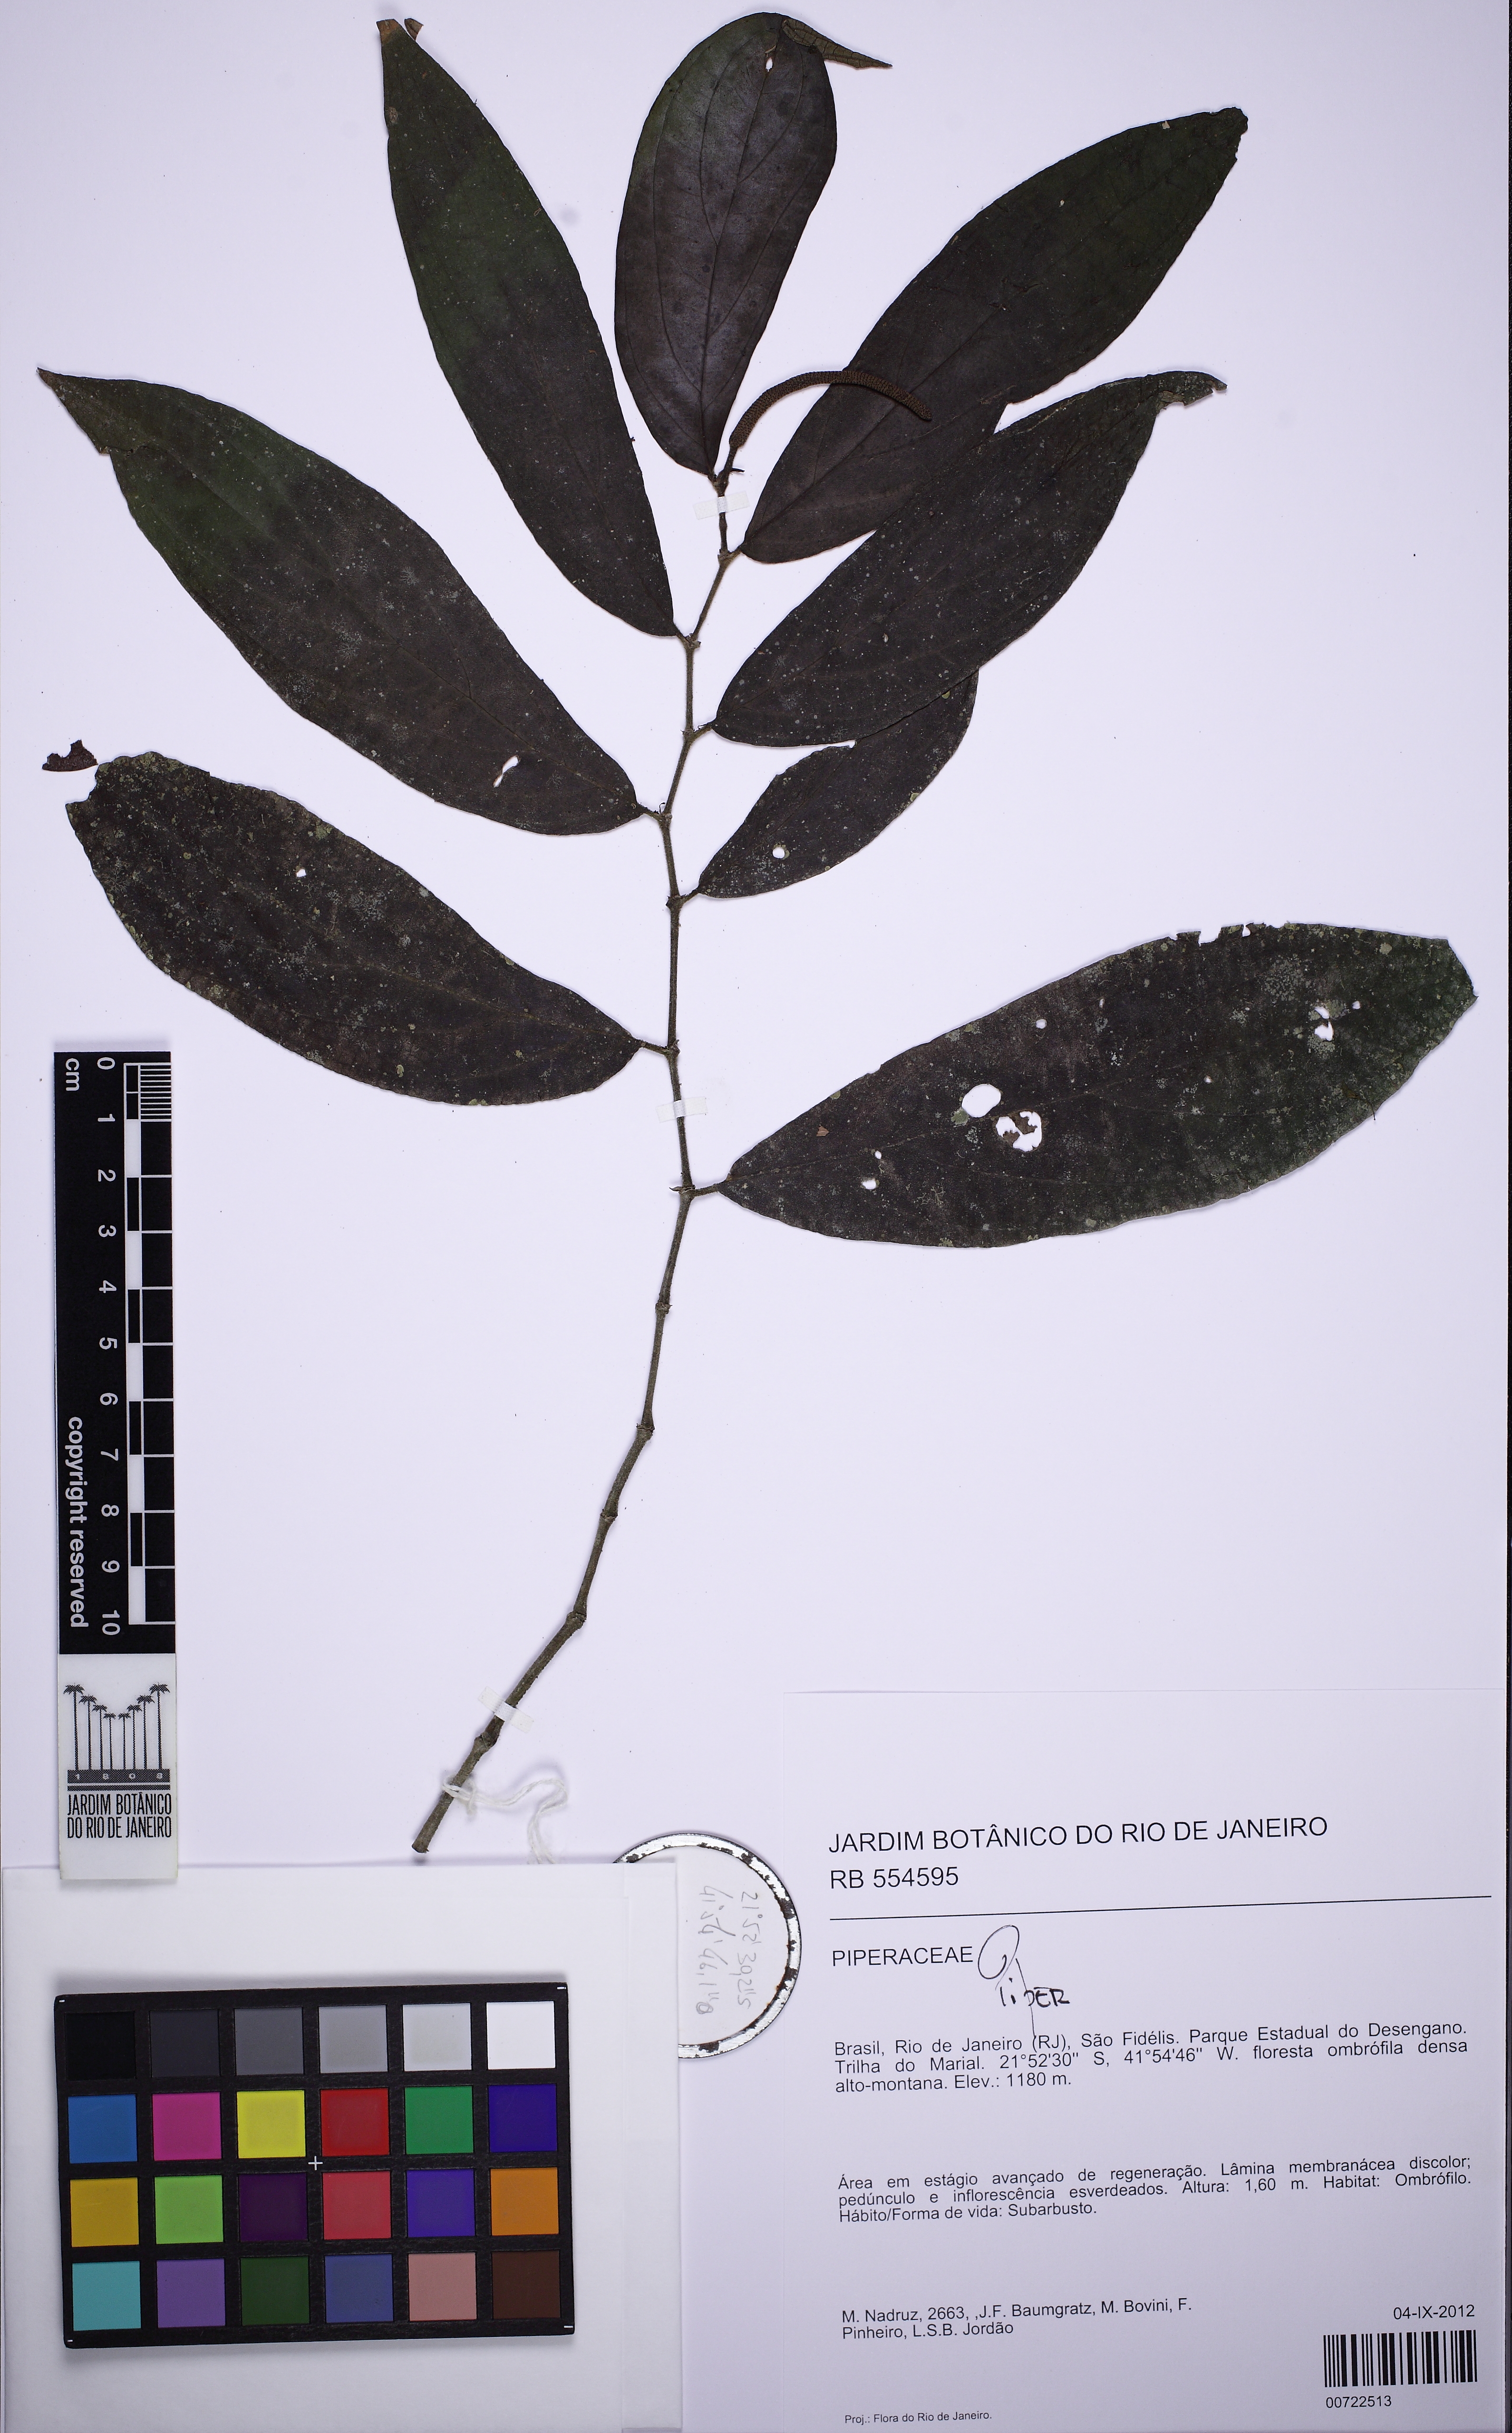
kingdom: Plantae
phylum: Tracheophyta
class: Magnoliopsida
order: Piperales
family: Piperaceae
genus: Piper
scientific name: Piper
